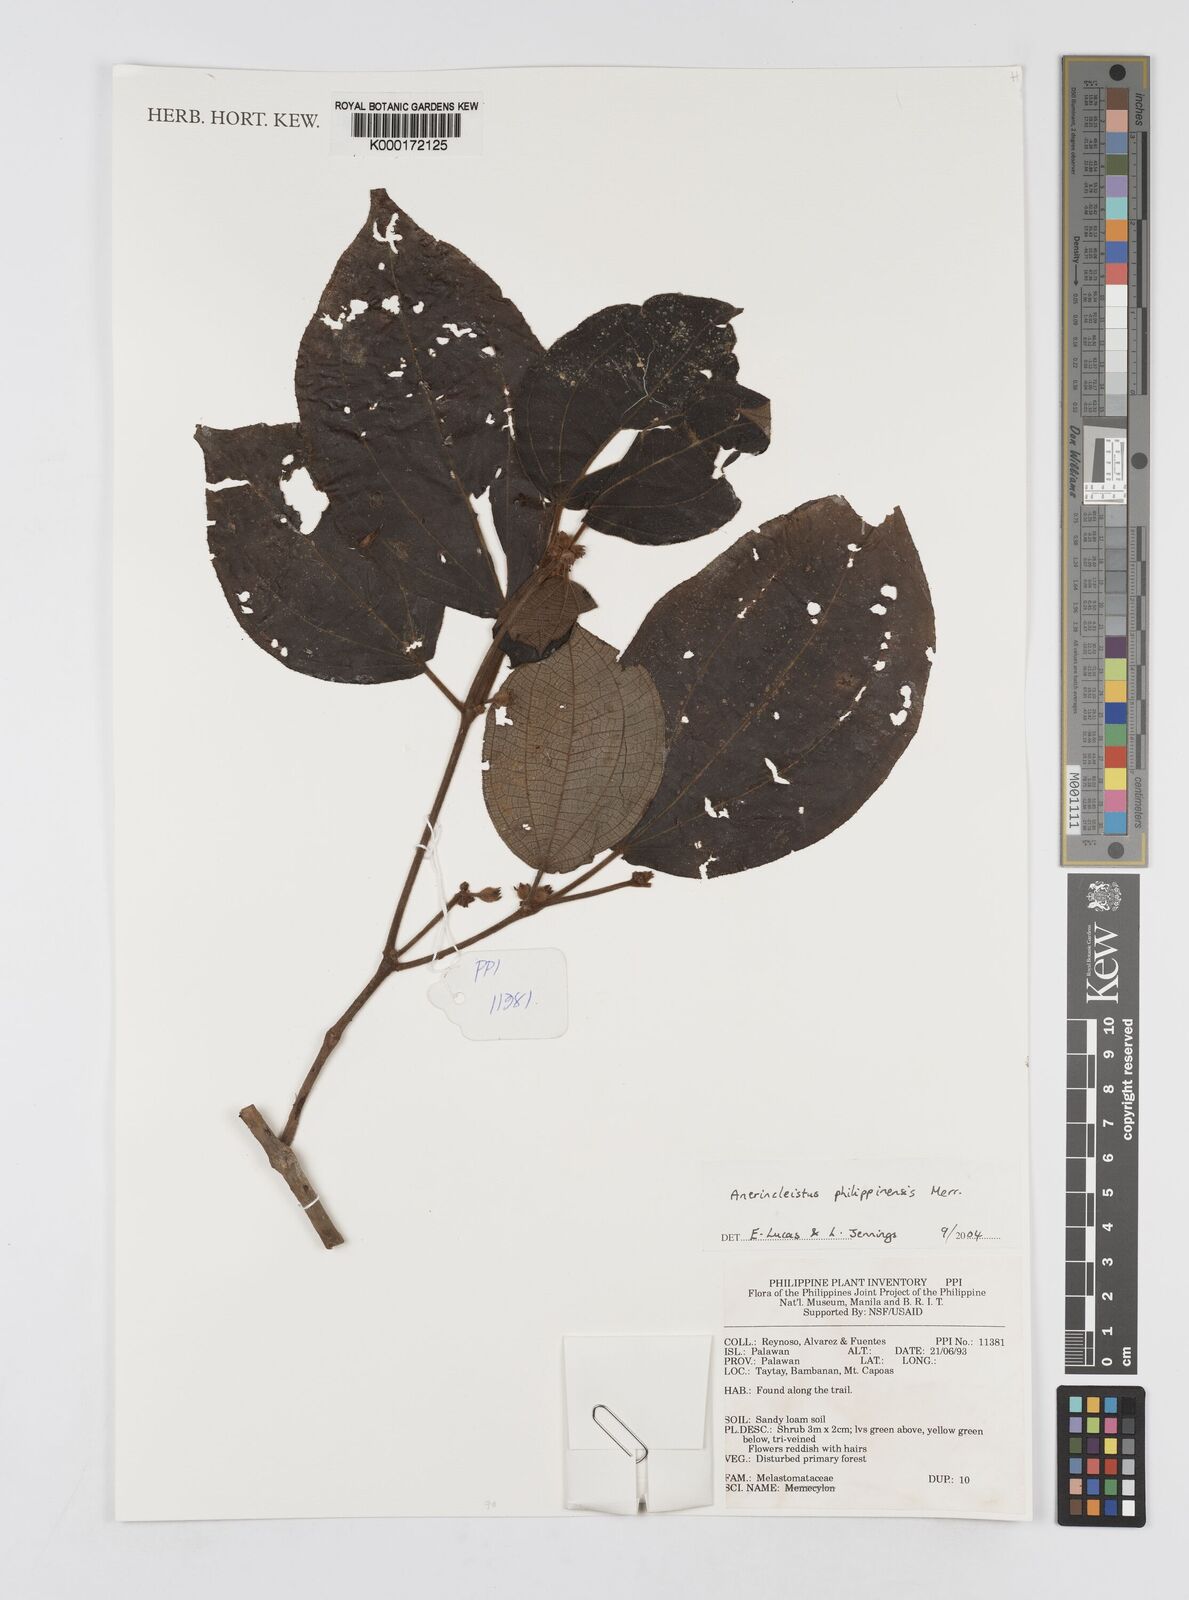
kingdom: Plantae
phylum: Tracheophyta
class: Magnoliopsida
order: Myrtales
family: Melastomataceae
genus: Anerincleistus
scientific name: Anerincleistus philippinensis
